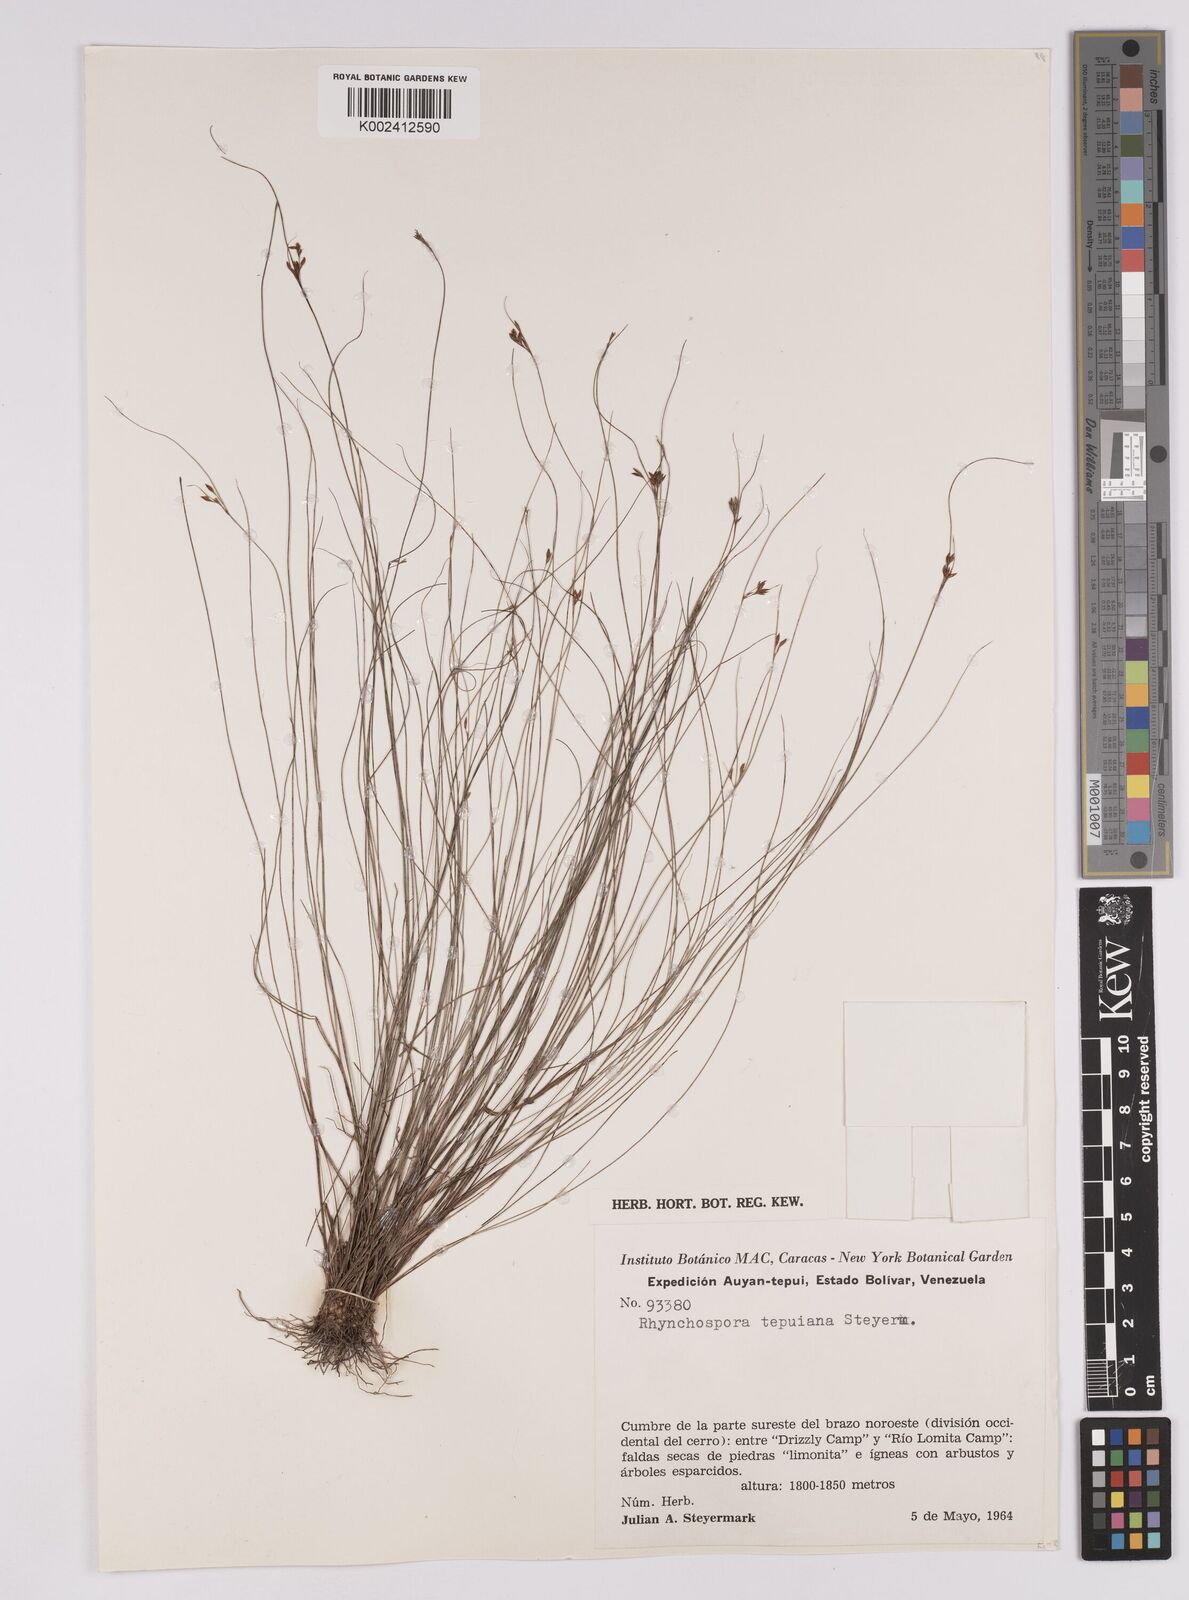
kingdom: Plantae
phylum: Tracheophyta
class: Liliopsida
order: Poales
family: Cyperaceae
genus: Rhynchospora
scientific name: Rhynchospora tepuiana
